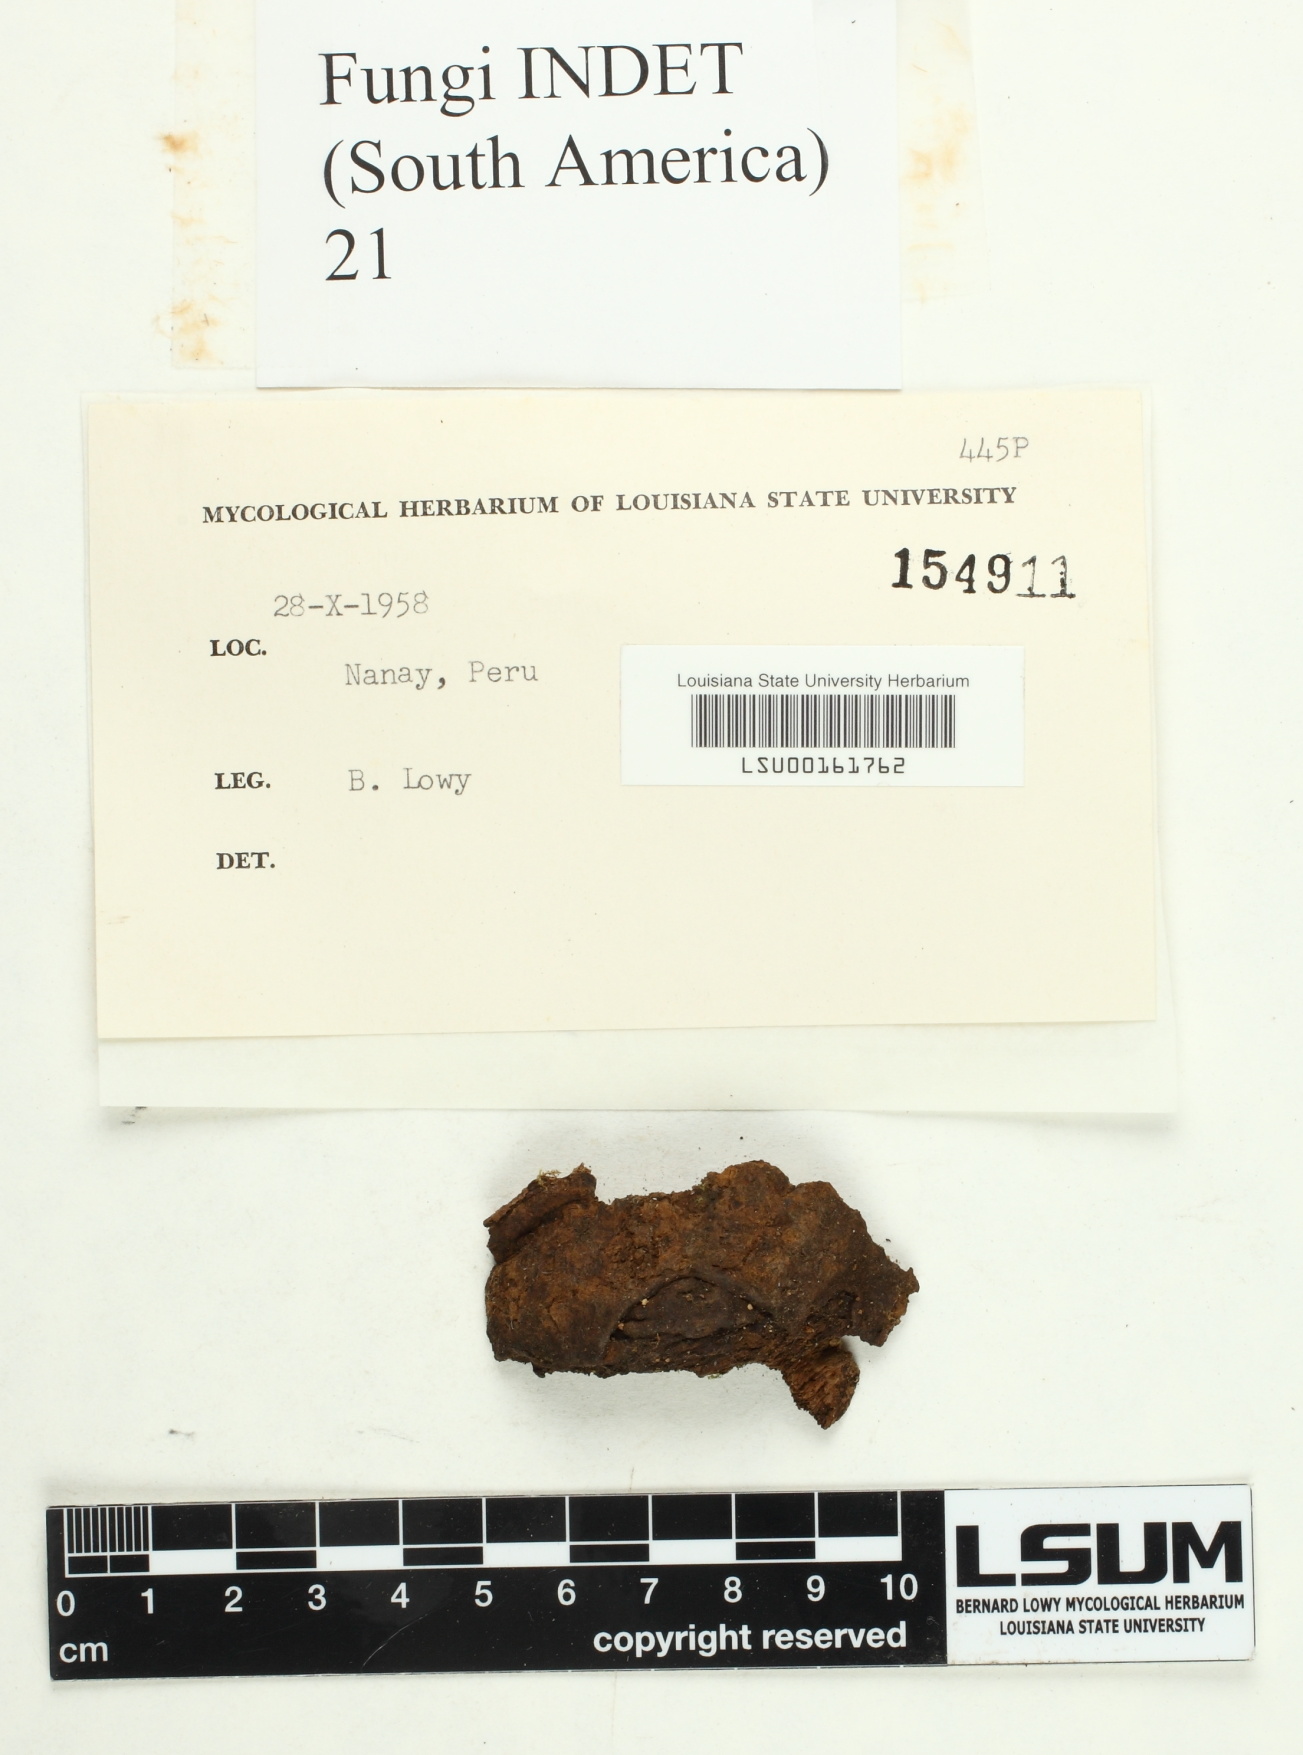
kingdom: Fungi
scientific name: Fungi
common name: Fungi
